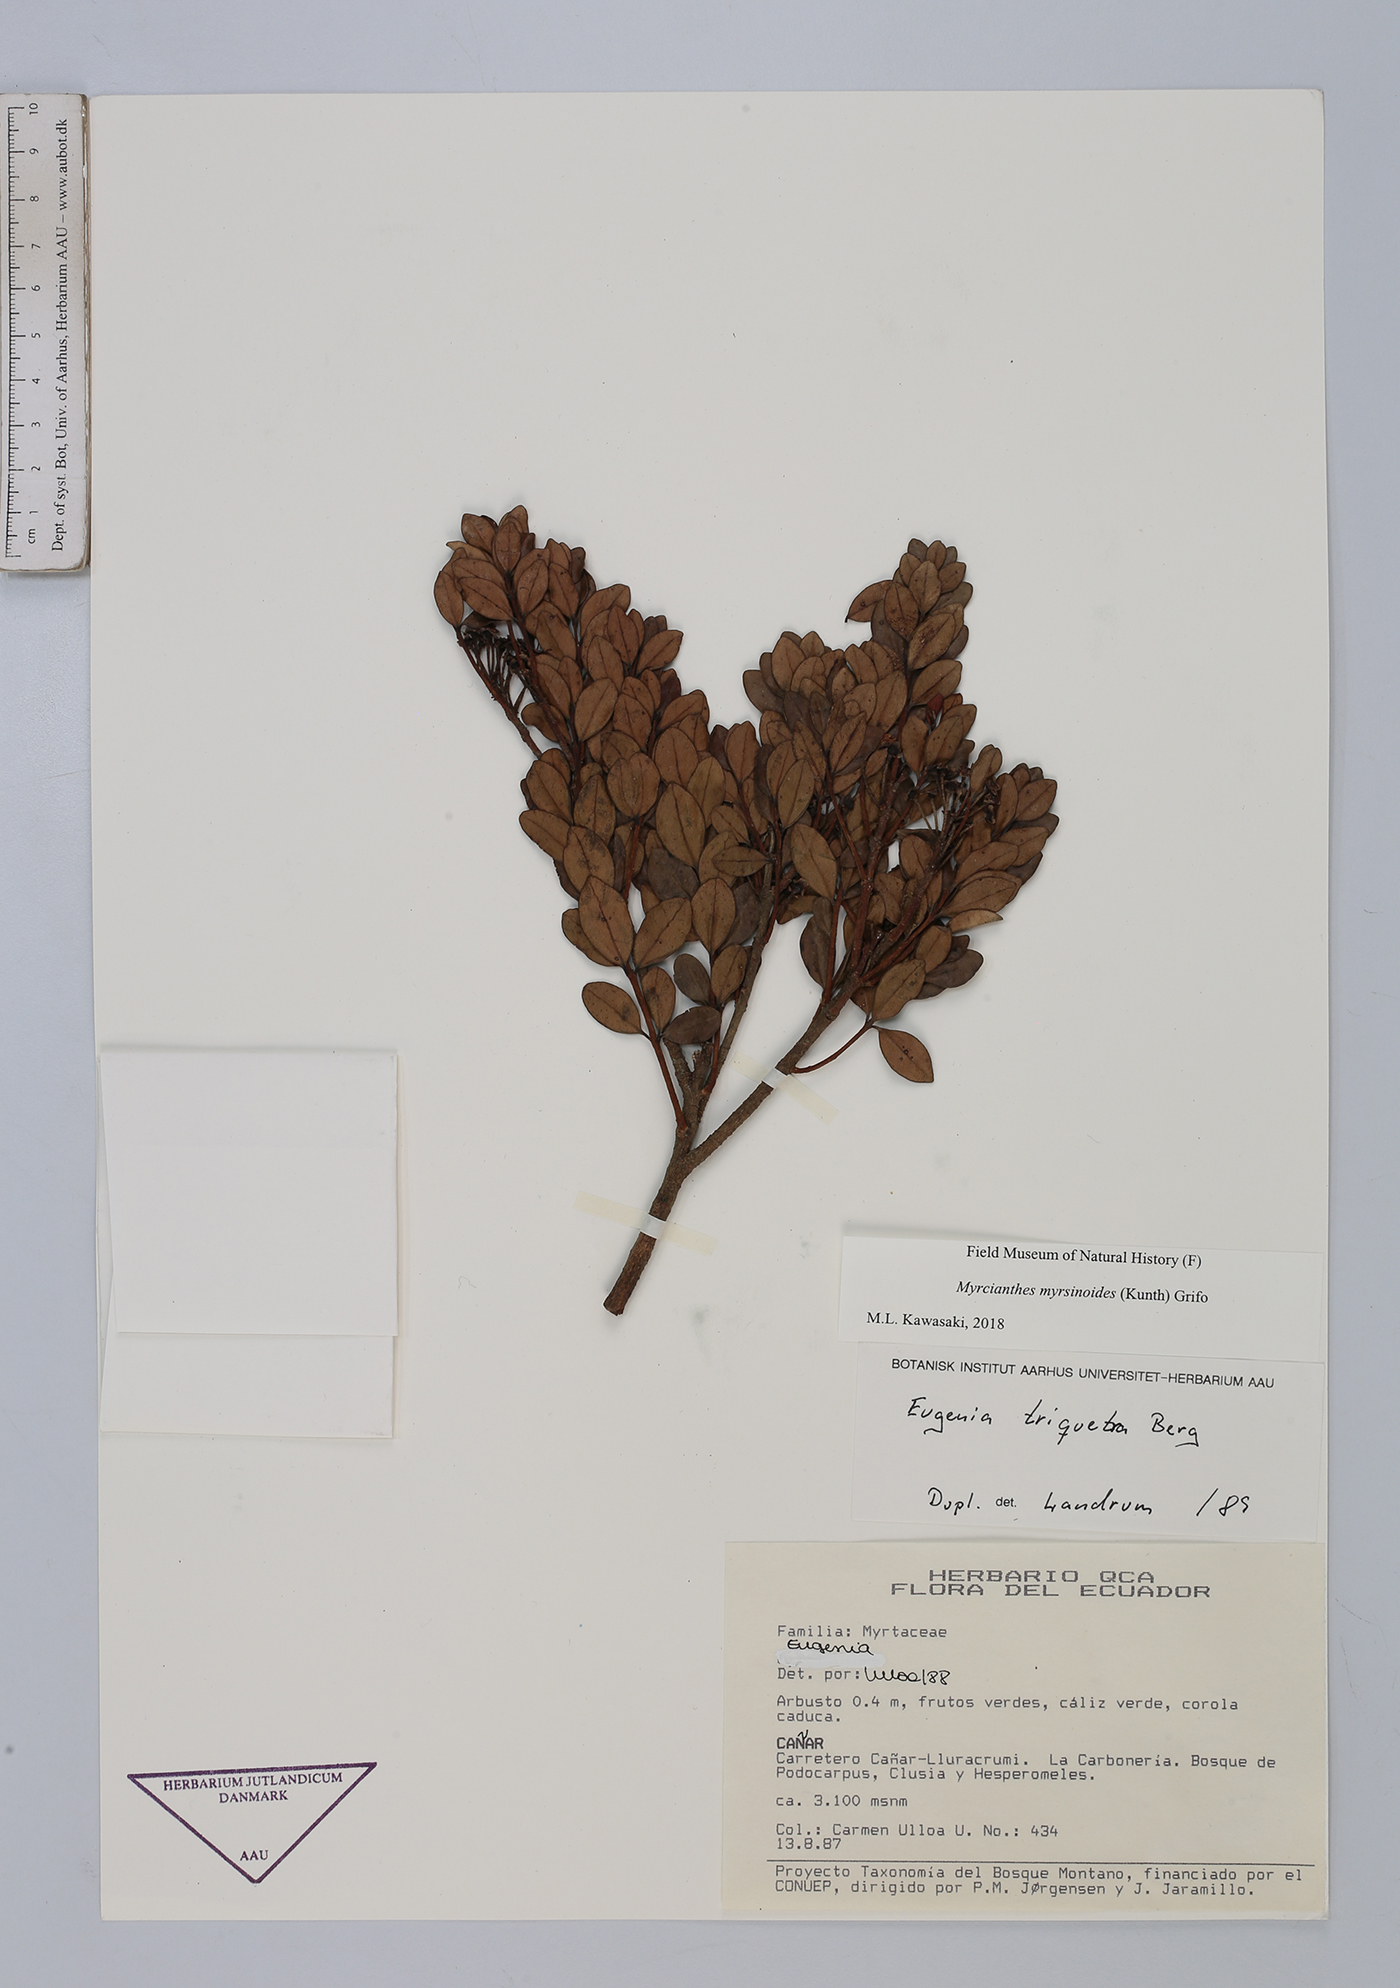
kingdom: Plantae
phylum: Tracheophyta
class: Magnoliopsida
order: Myrtales
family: Myrtaceae
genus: Myrcianthes
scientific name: Myrcianthes myrsinoides
